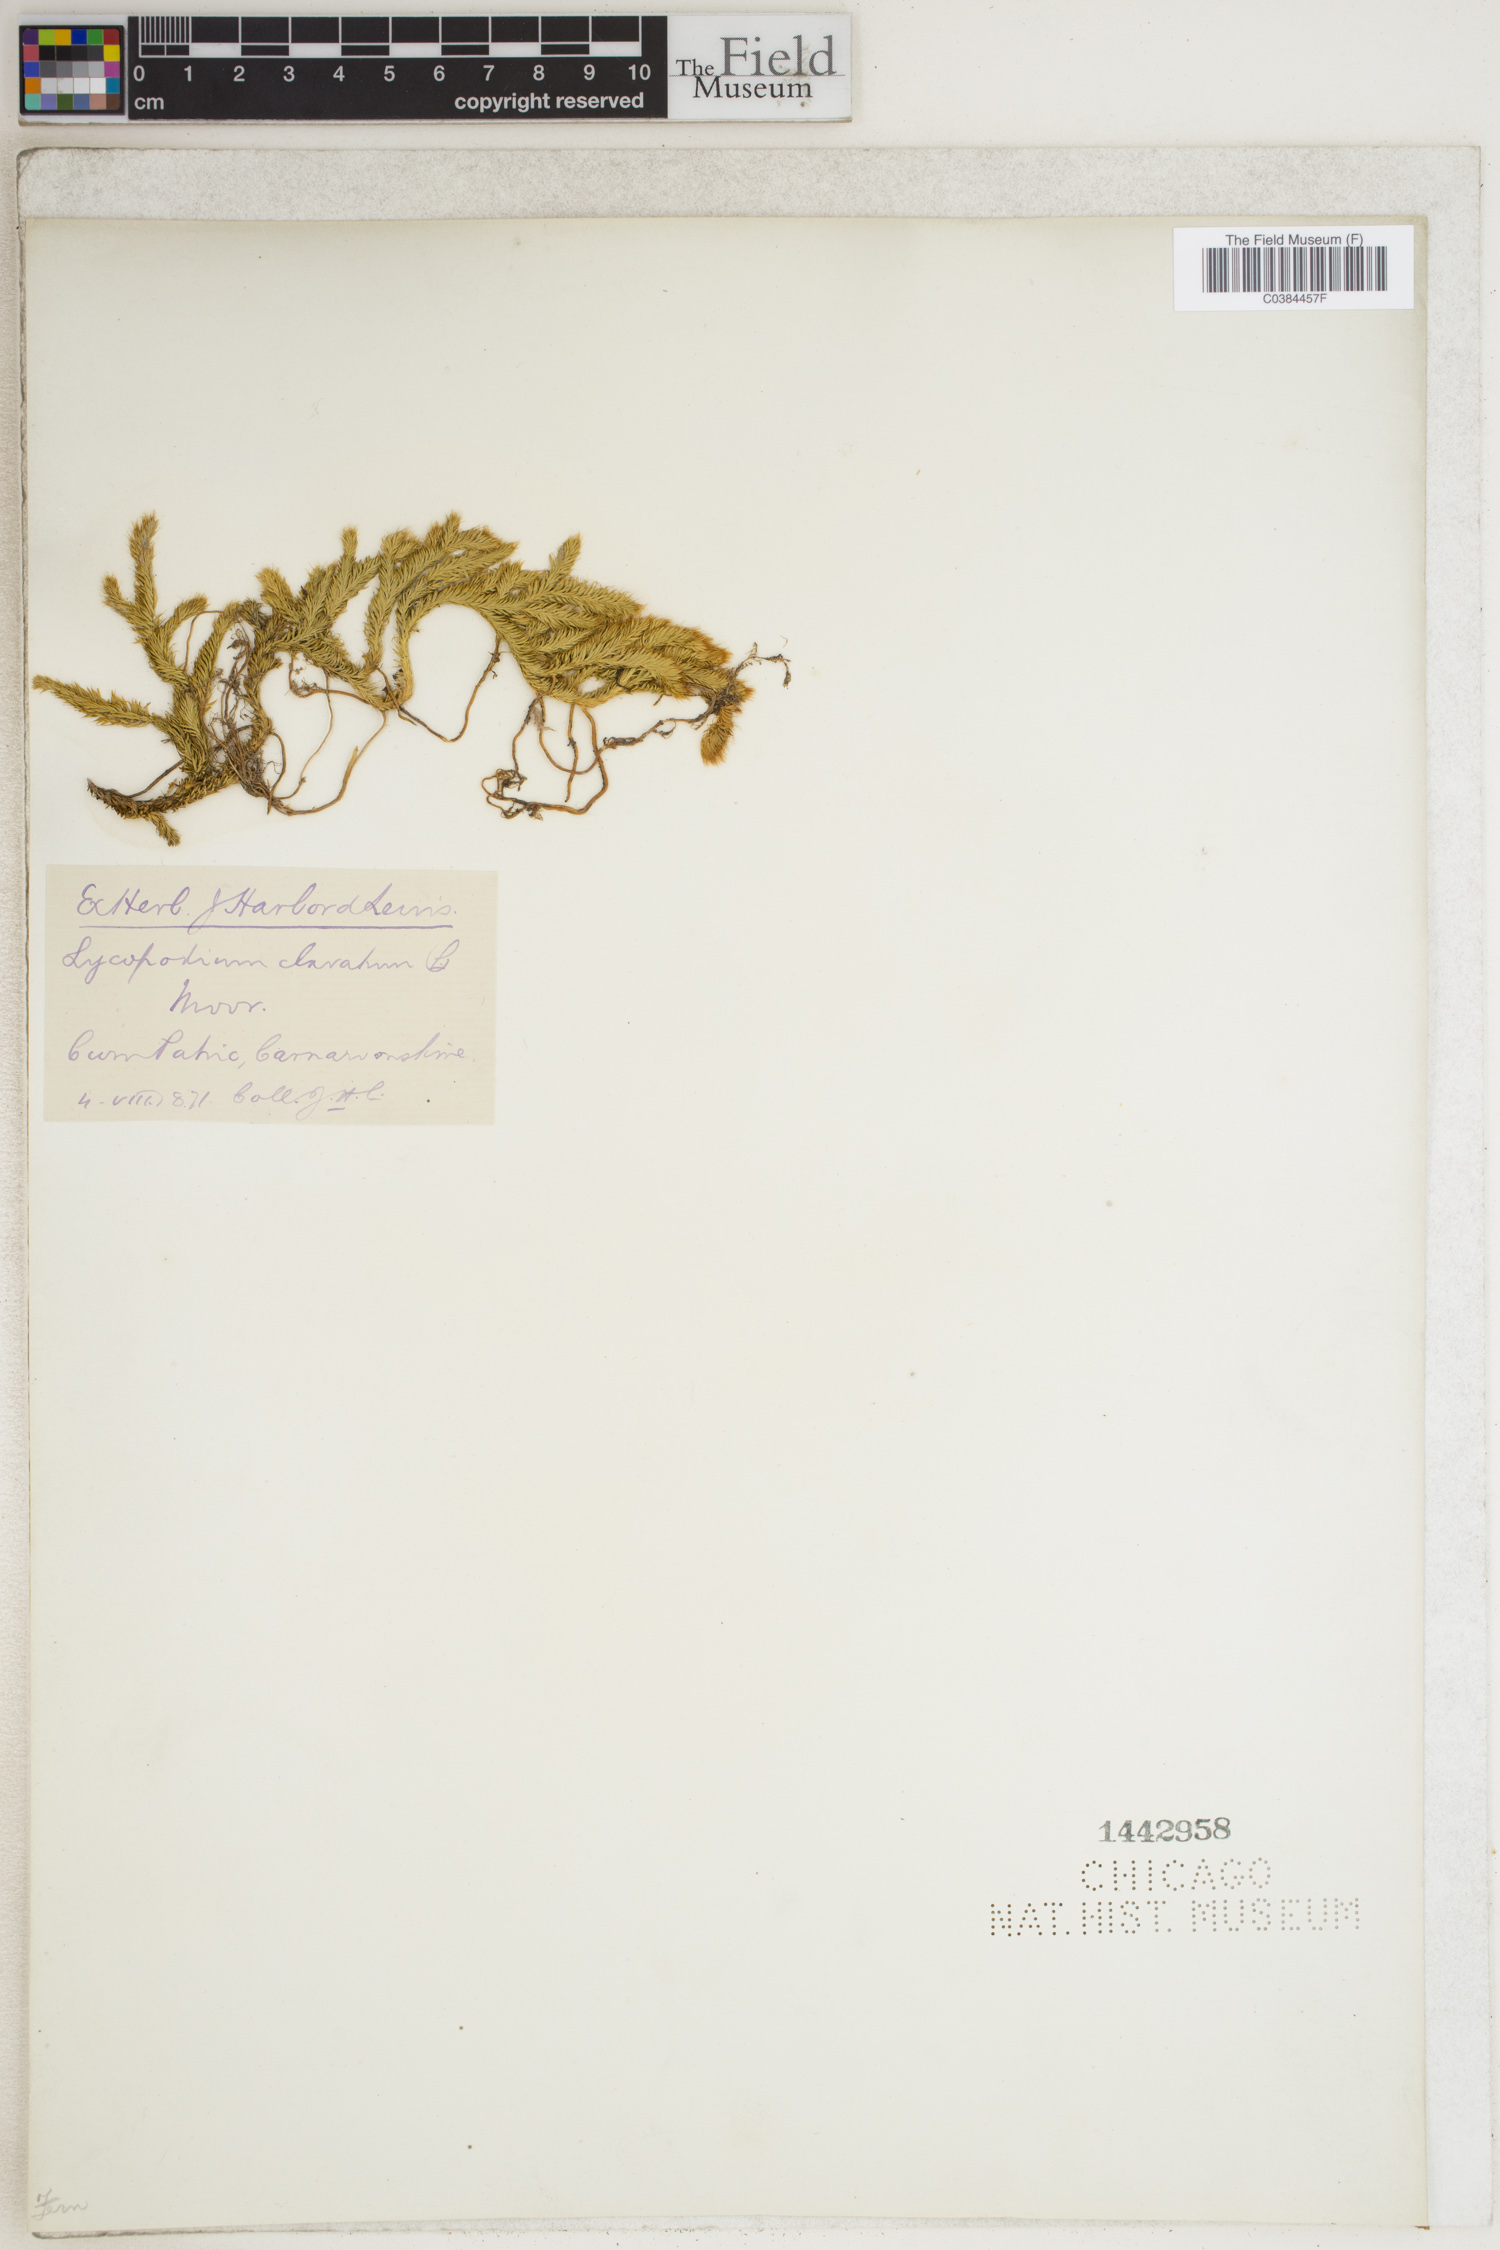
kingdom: Plantae
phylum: Tracheophyta
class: Lycopodiopsida
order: Lycopodiales
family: Lycopodiaceae
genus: Lycopodium
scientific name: Lycopodium clavatum
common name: Stag's-horn clubmoss
